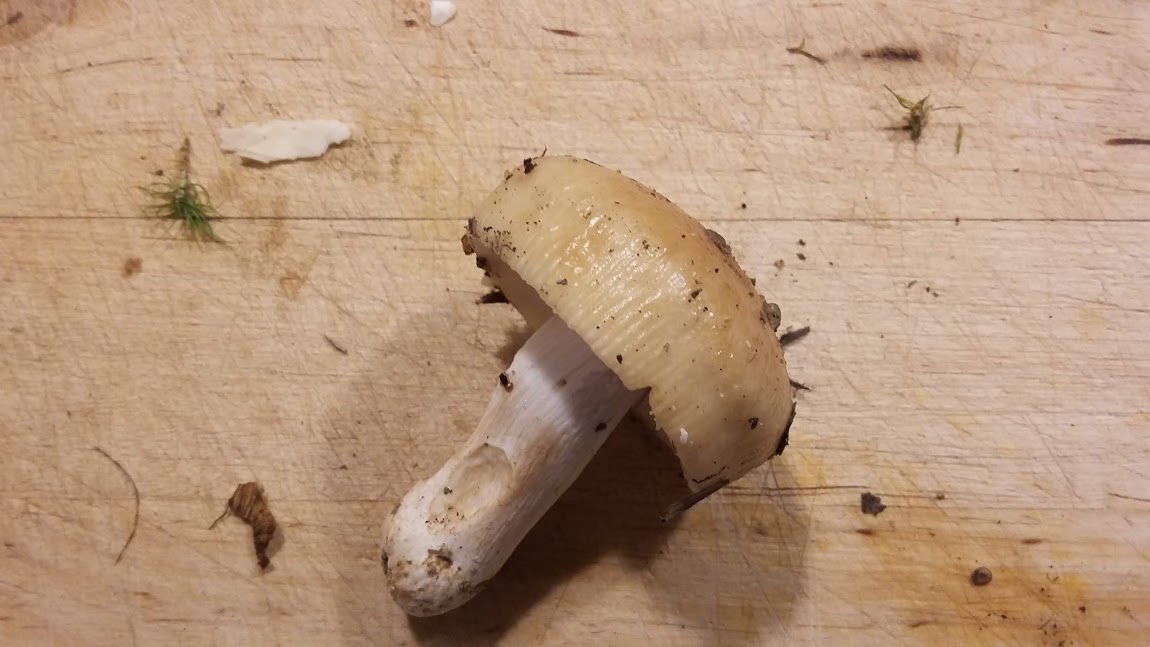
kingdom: Fungi
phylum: Basidiomycota
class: Agaricomycetes
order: Russulales
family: Russulaceae
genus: Russula
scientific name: Russula grata
